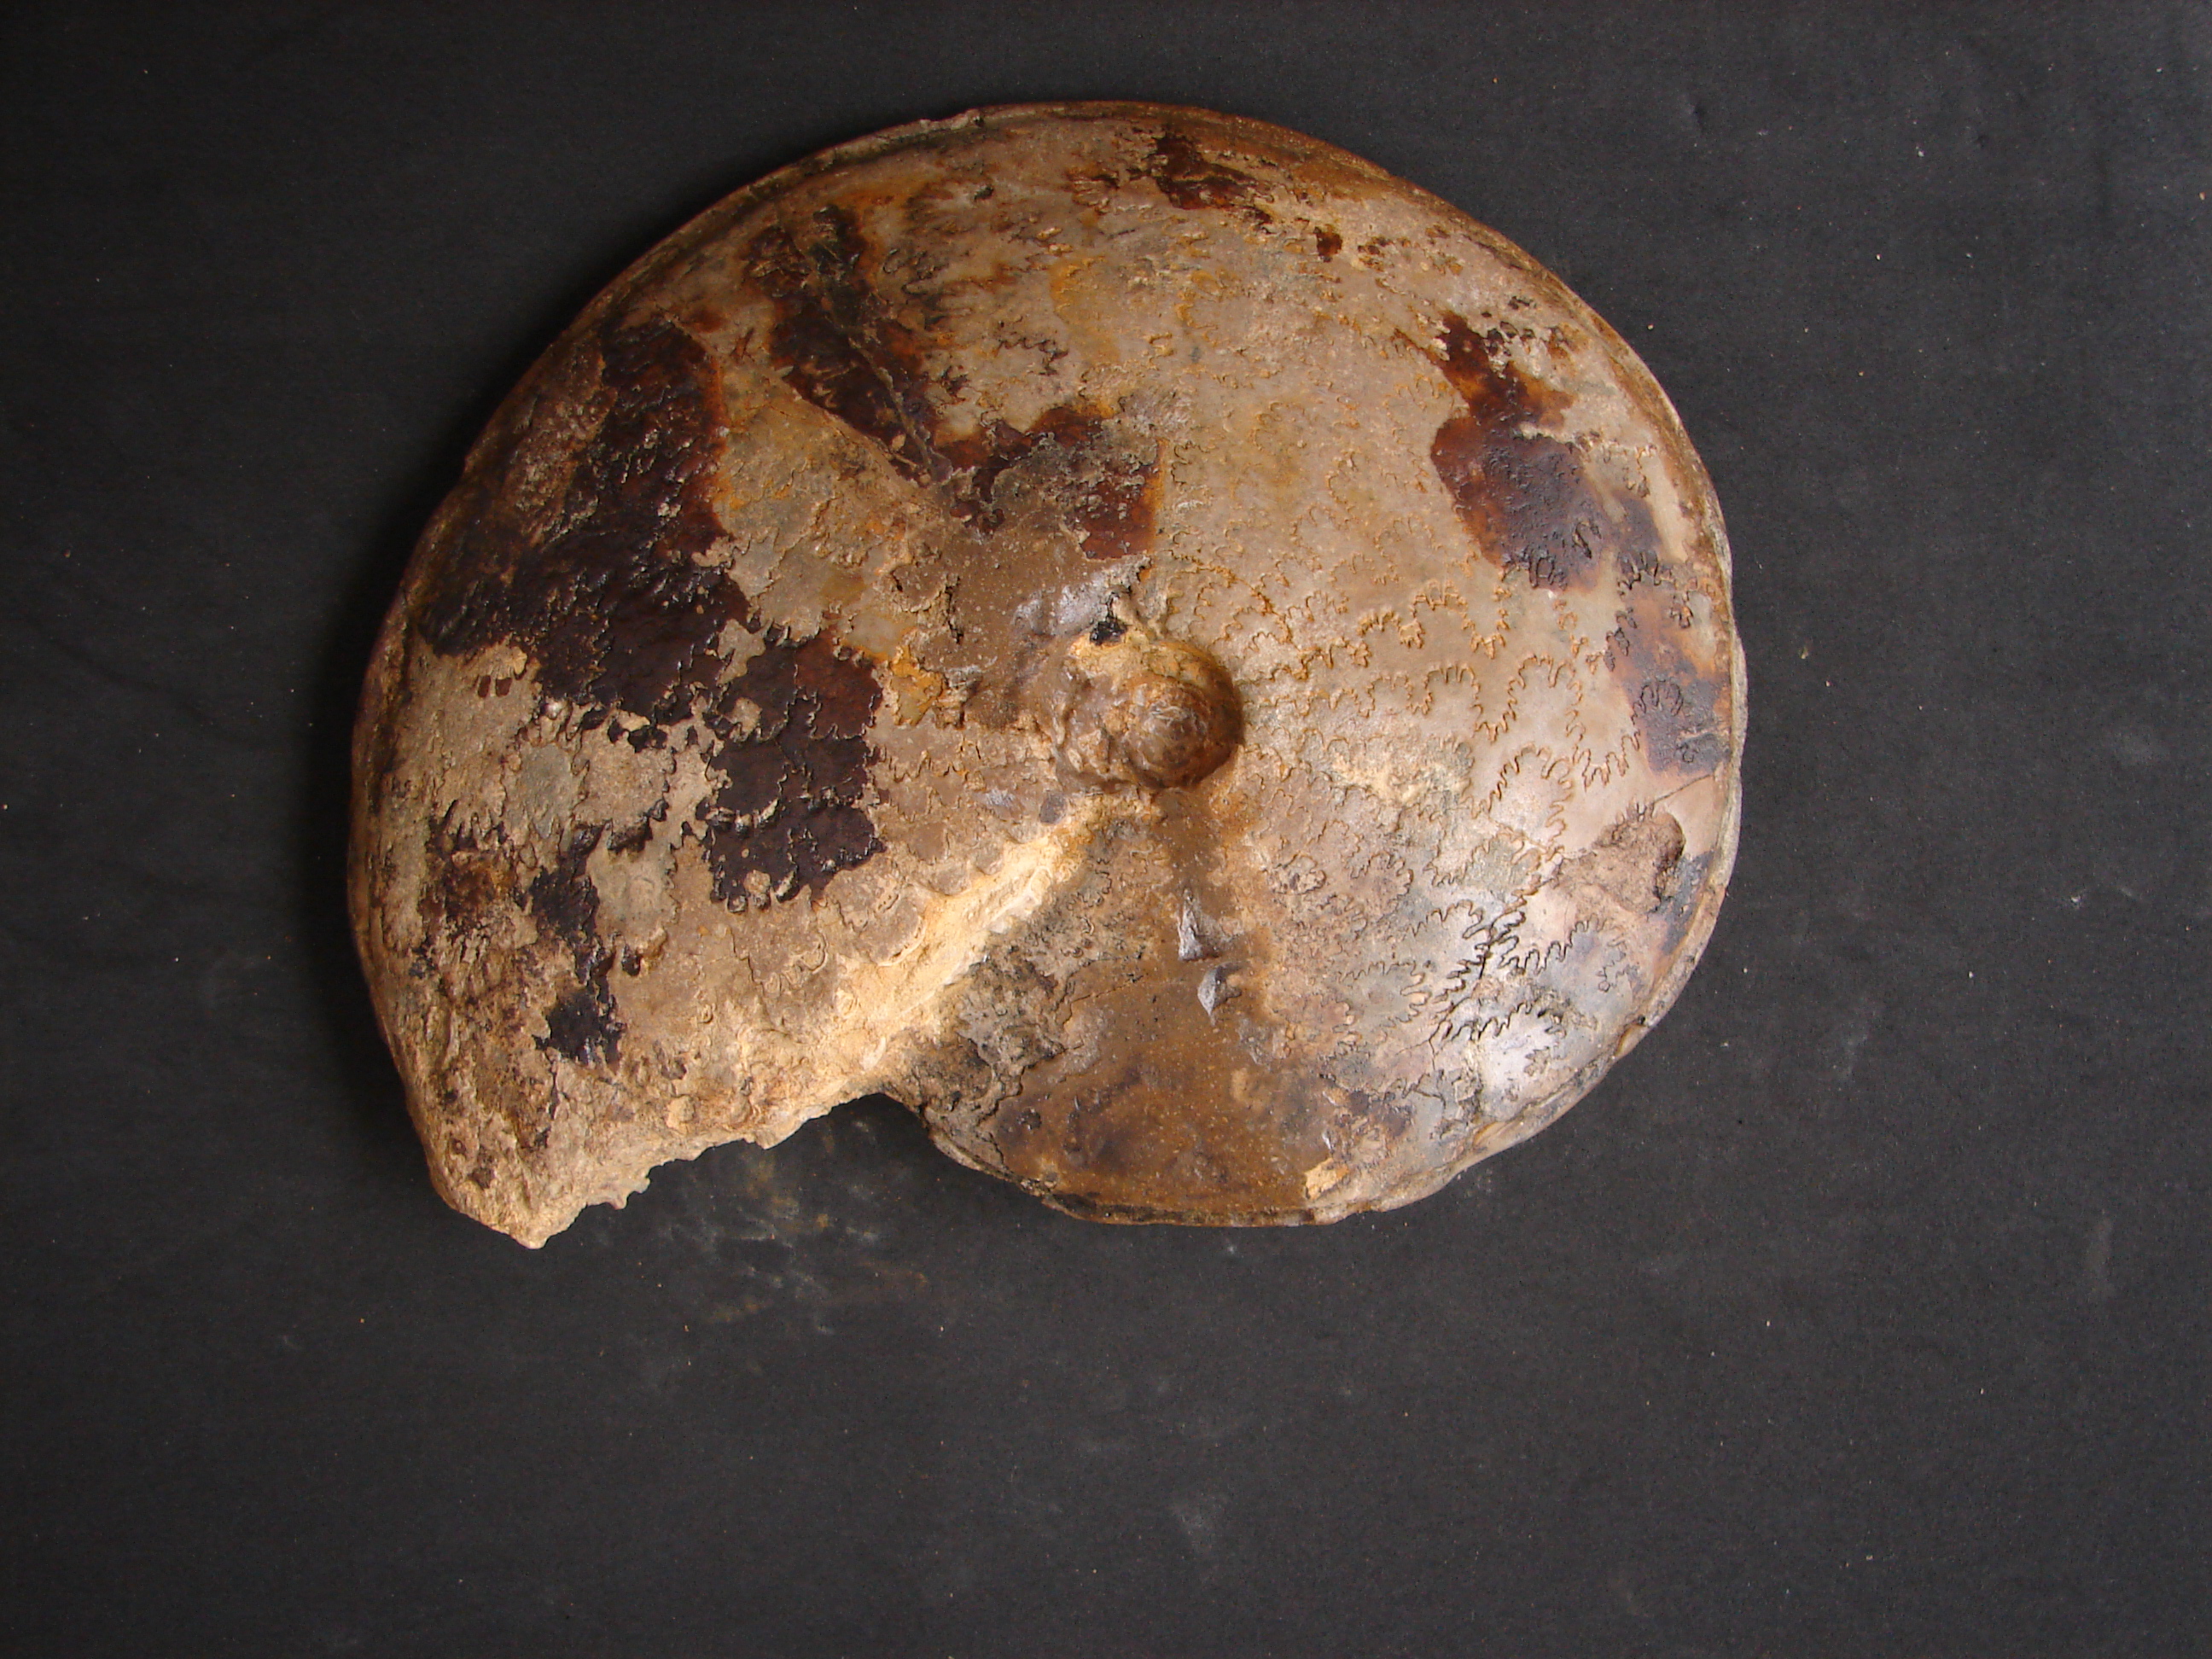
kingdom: Animalia
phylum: Mollusca
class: Cephalopoda
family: Graphoceratidae
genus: Hyperlioceras
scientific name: Hyperlioceras
